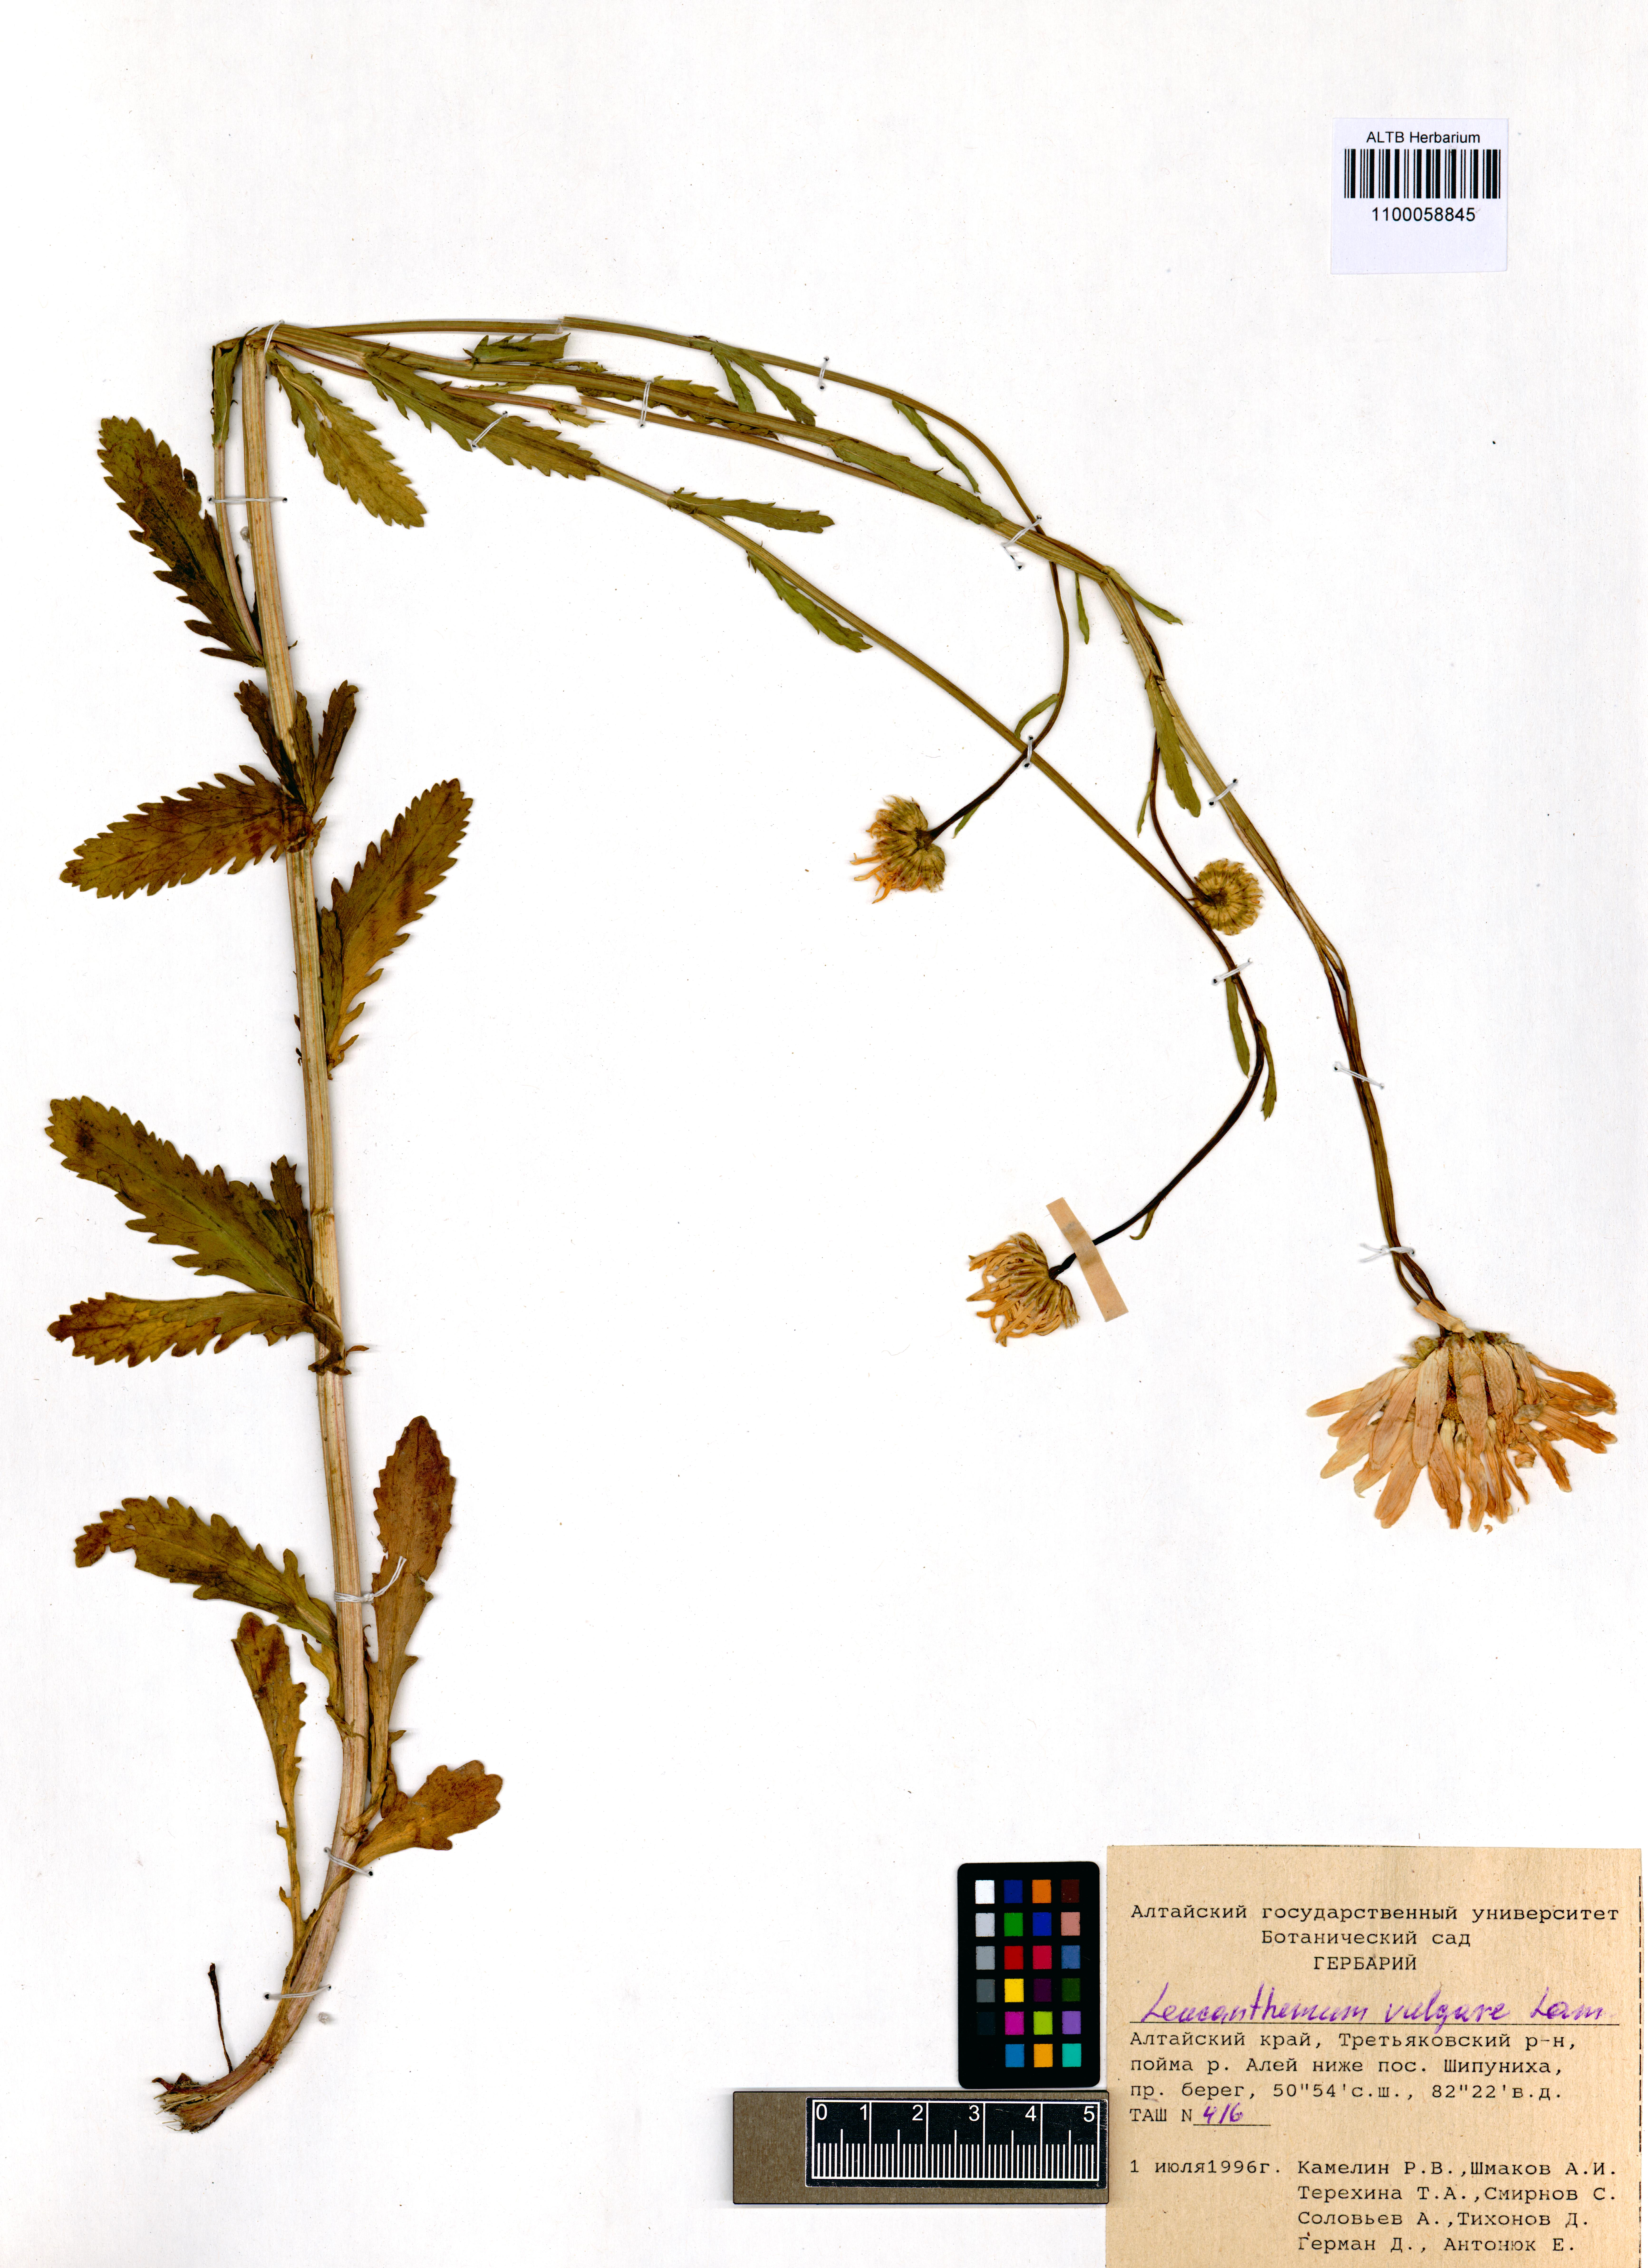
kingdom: Plantae
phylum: Tracheophyta
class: Magnoliopsida
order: Asterales
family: Asteraceae
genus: Leucanthemum
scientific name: Leucanthemum vulgare
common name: Oxeye daisy
